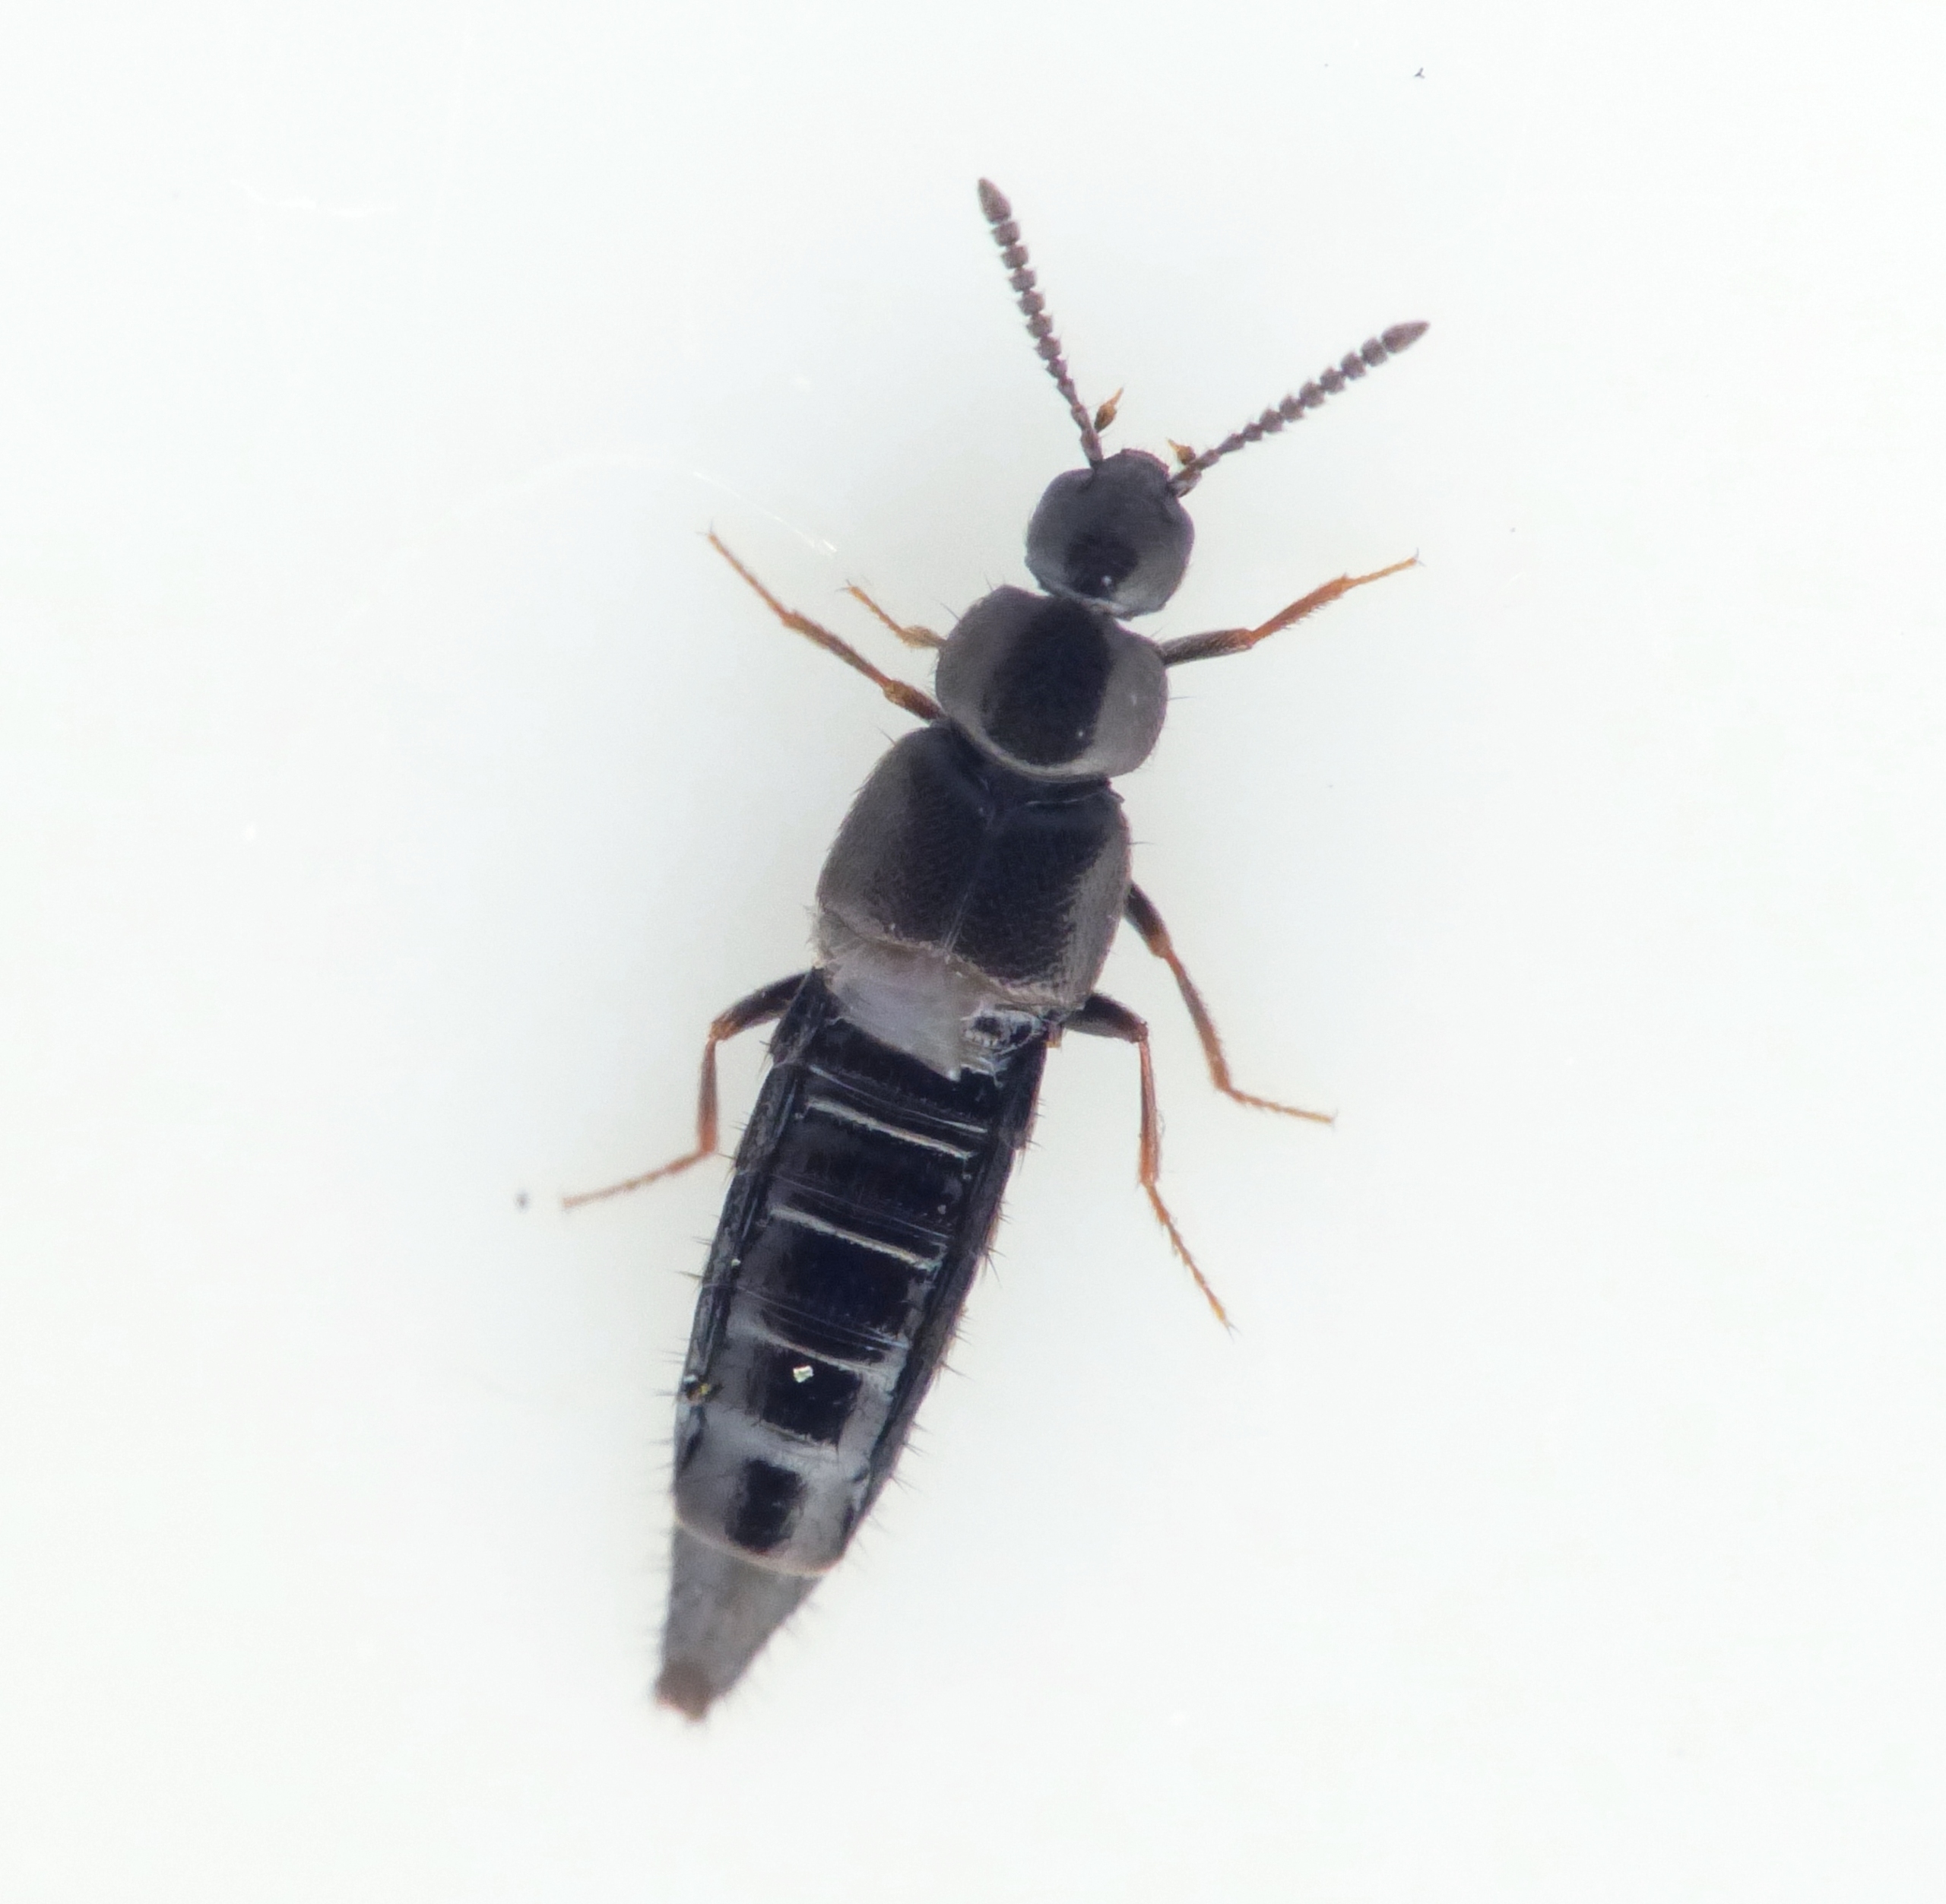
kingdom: Animalia
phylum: Arthropoda
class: Insecta
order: Coleoptera
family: Staphylinidae
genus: Aleochara
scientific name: Aleochara sparsa
